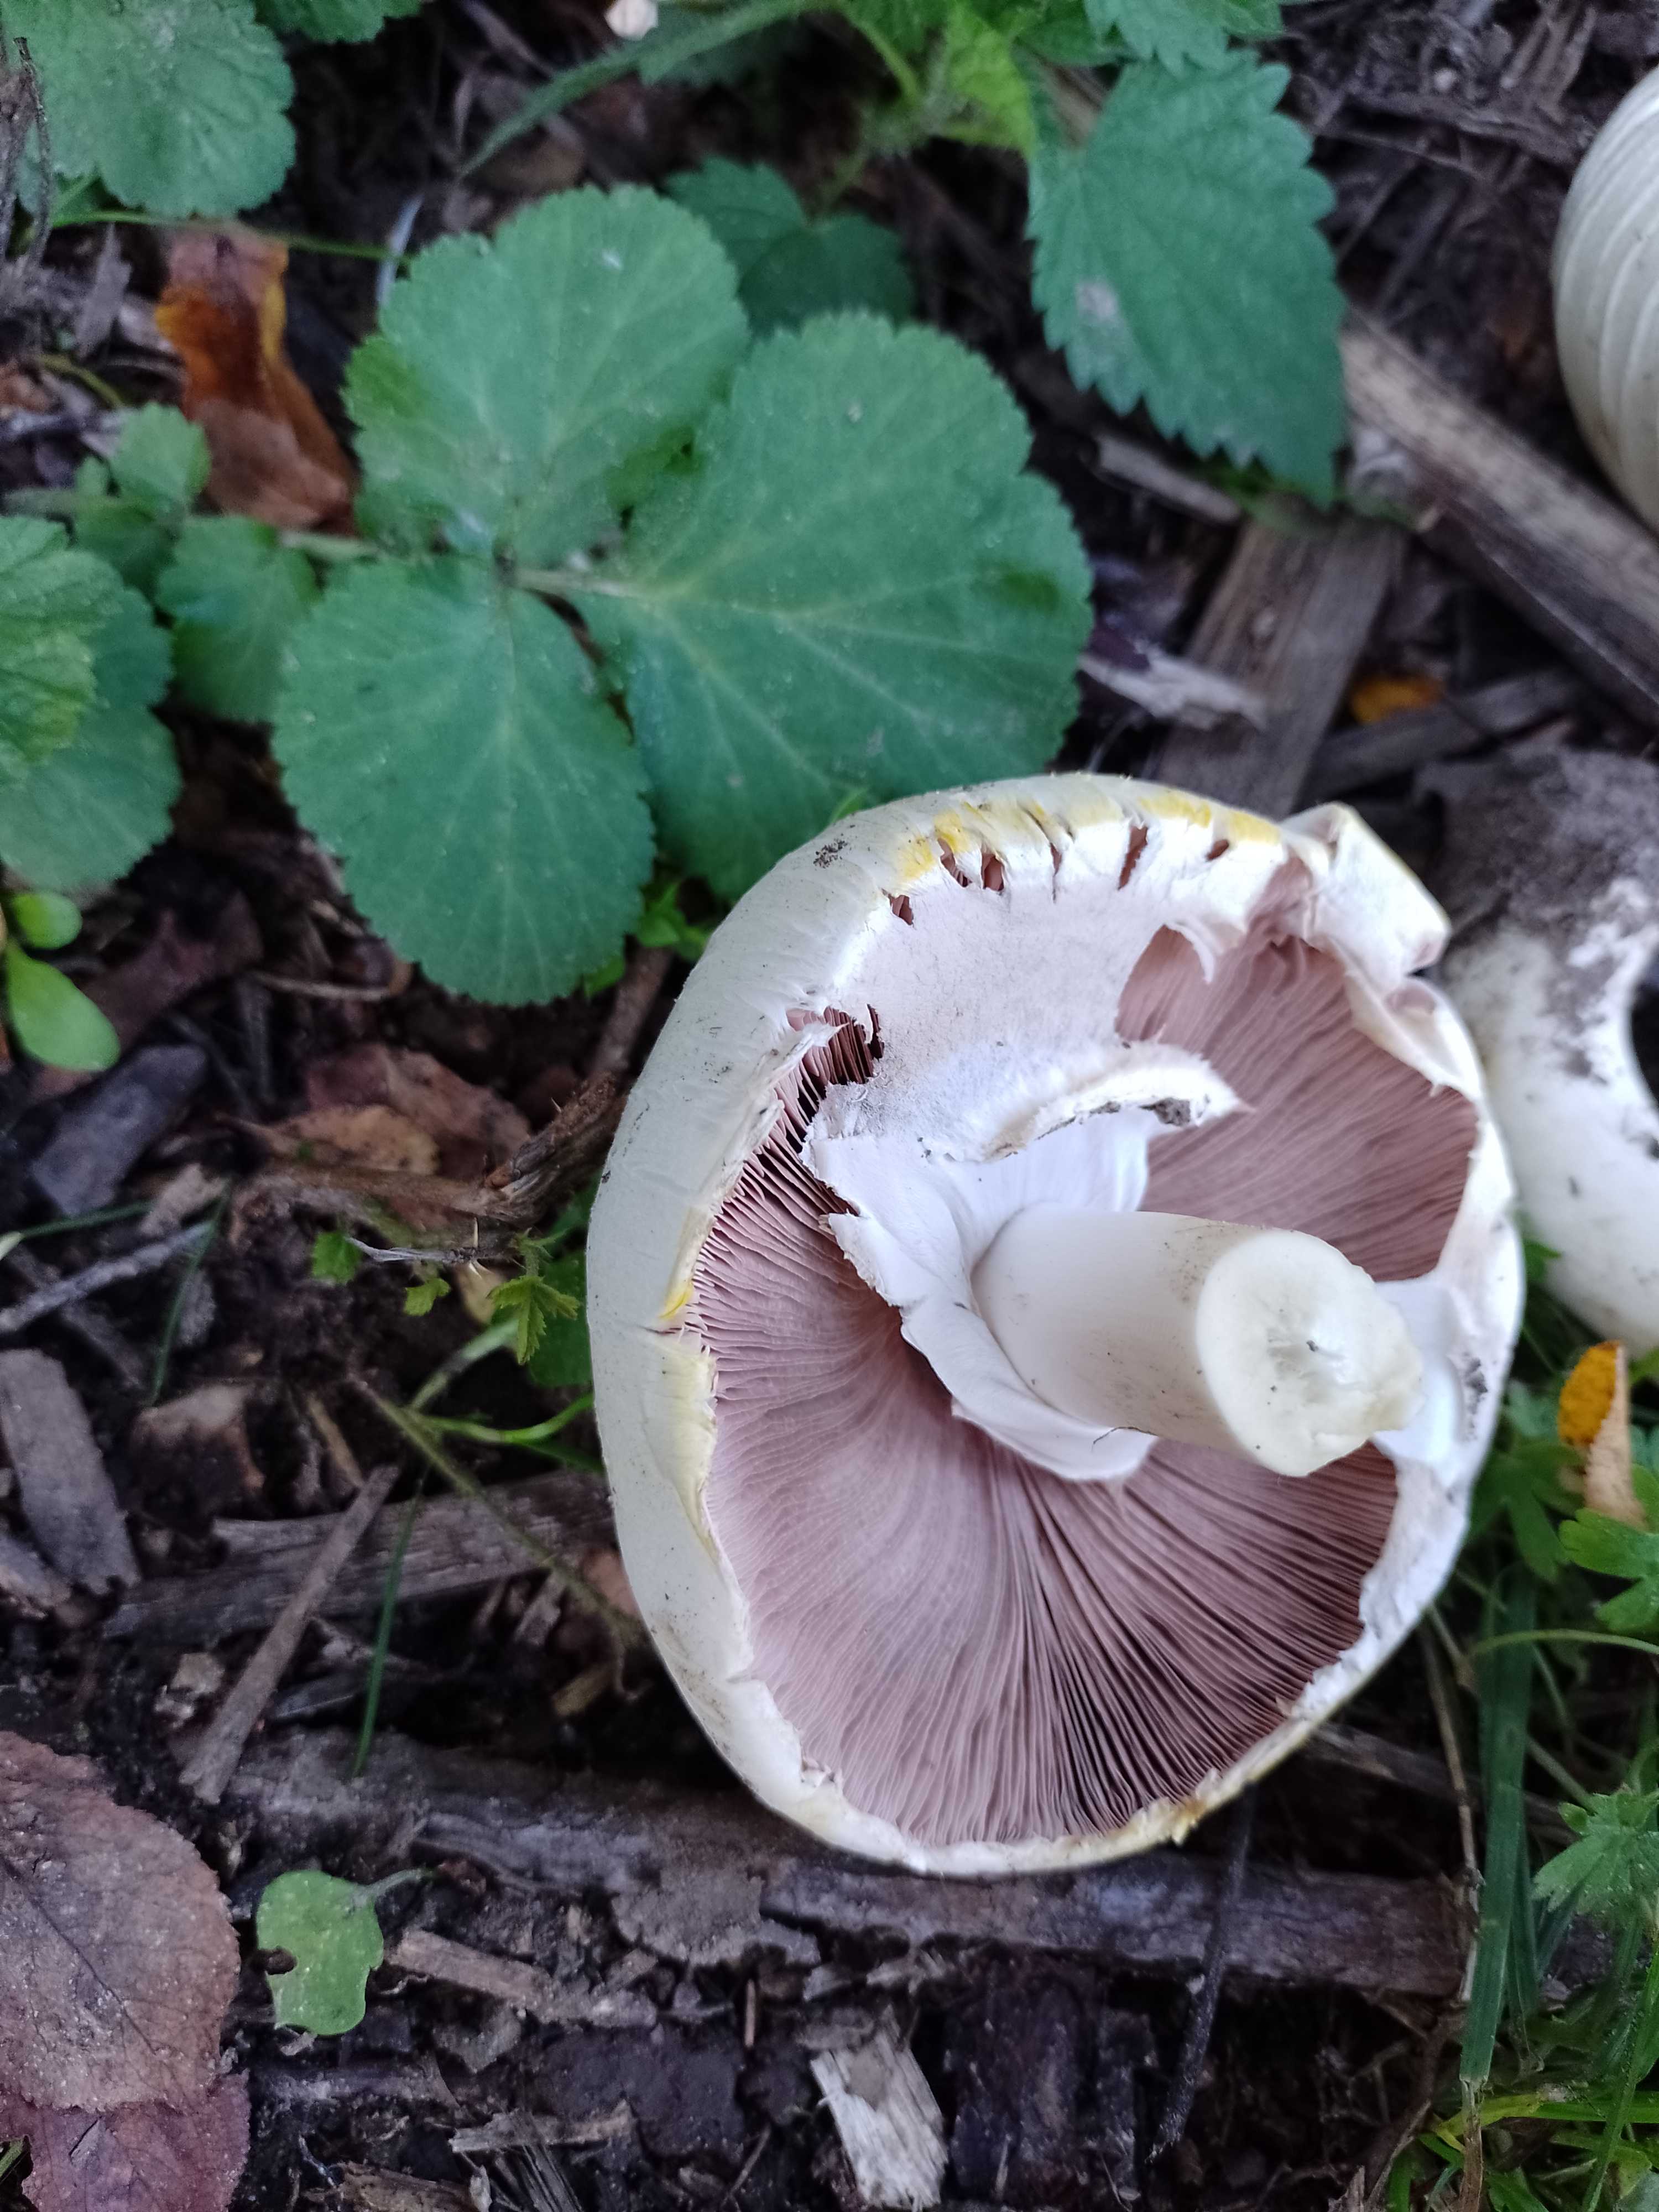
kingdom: Fungi
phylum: Basidiomycota
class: Agaricomycetes
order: Agaricales
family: Agaricaceae
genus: Agaricus
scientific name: Agaricus xanthodermus
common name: karbol-champignon
